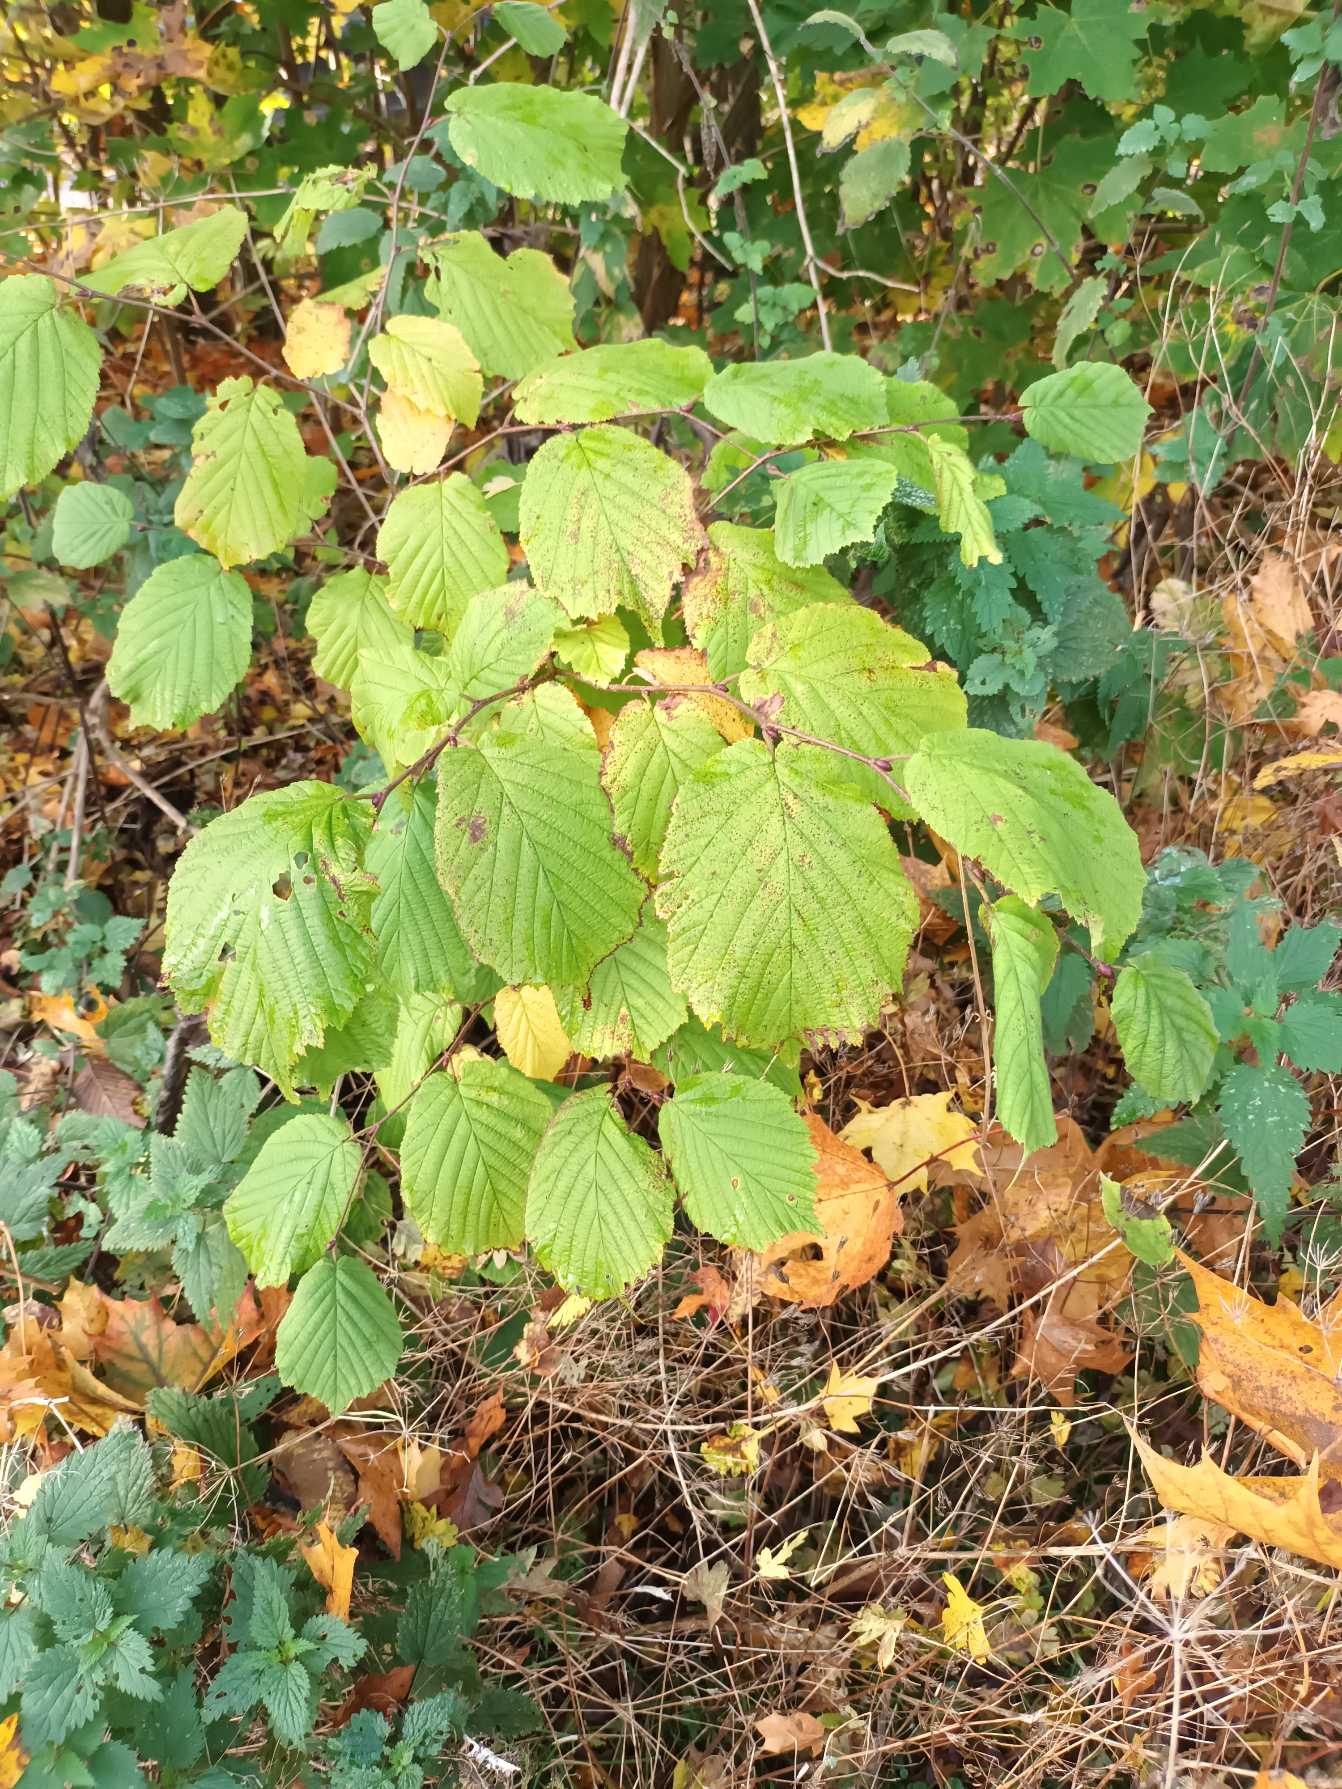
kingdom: Plantae
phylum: Tracheophyta
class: Magnoliopsida
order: Fagales
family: Betulaceae
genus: Corylus
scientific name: Corylus avellana
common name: Hassel
